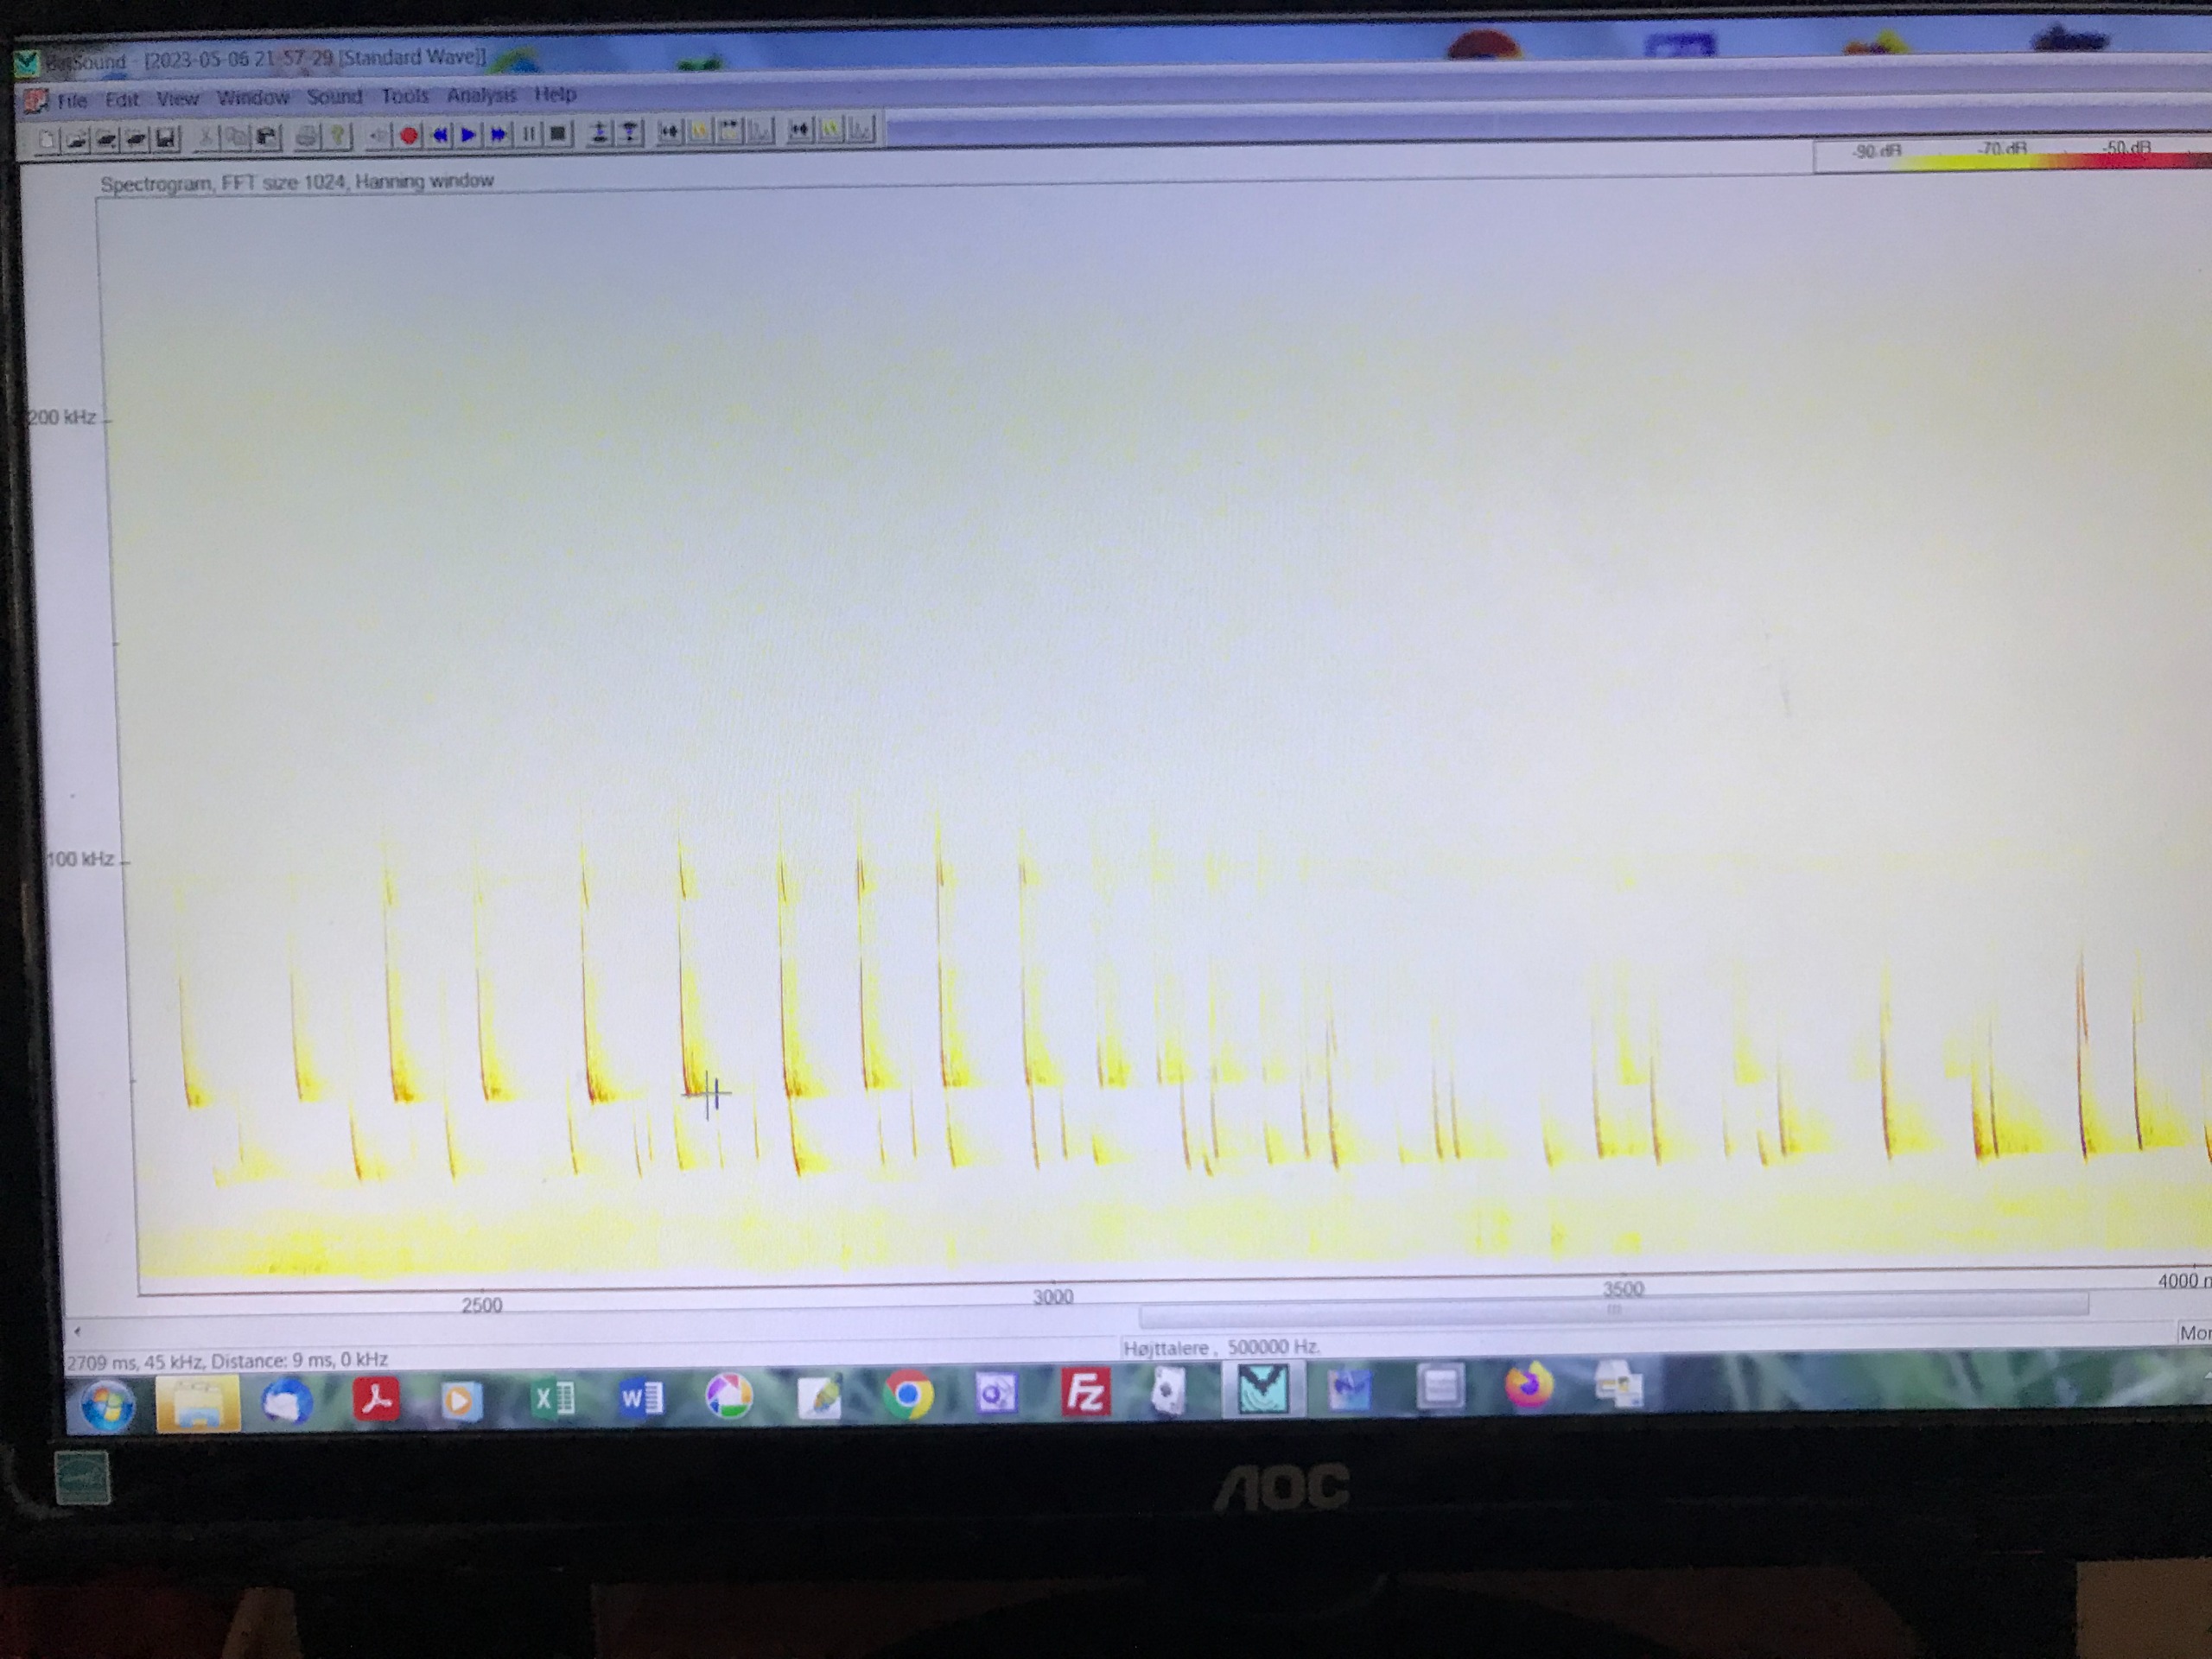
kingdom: Animalia
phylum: Chordata
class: Mammalia
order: Chiroptera
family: Vespertilionidae
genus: Pipistrellus
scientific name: Pipistrellus pipistrellus
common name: Pipistrelflagermus
